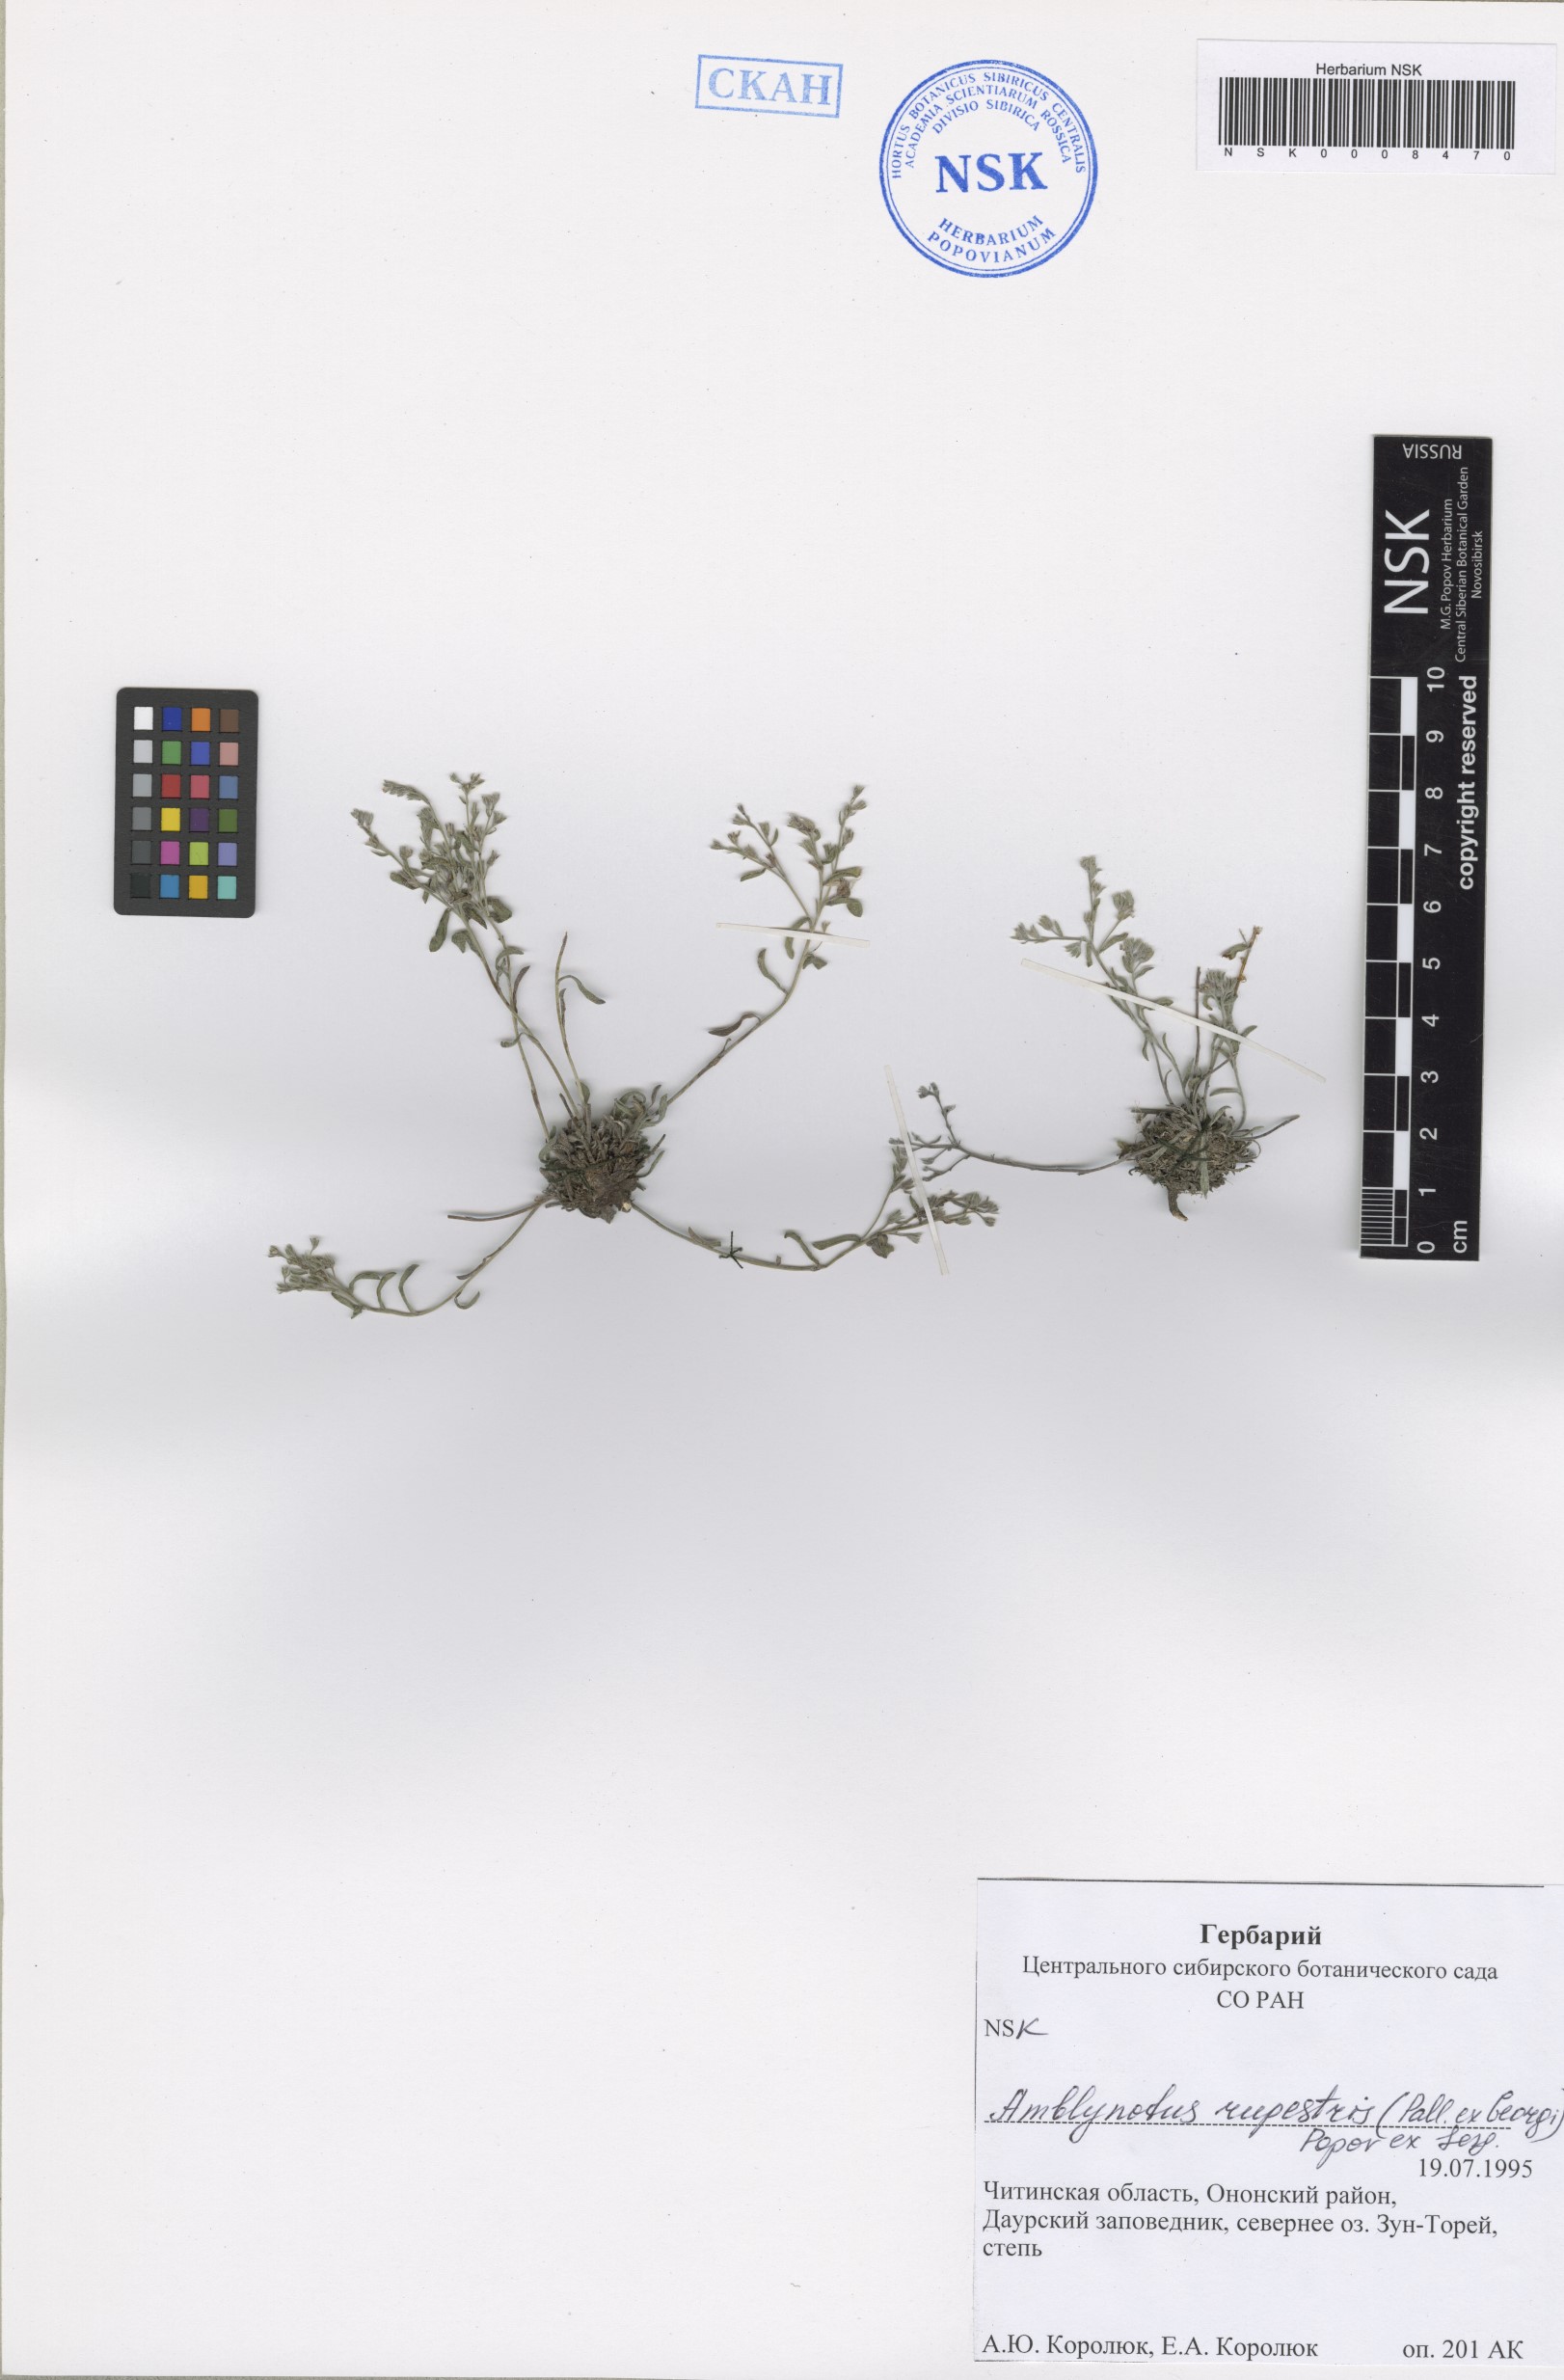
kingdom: Plantae
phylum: Tracheophyta
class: Magnoliopsida
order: Boraginales
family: Boraginaceae
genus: Eritrichium
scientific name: Eritrichium rupestre
